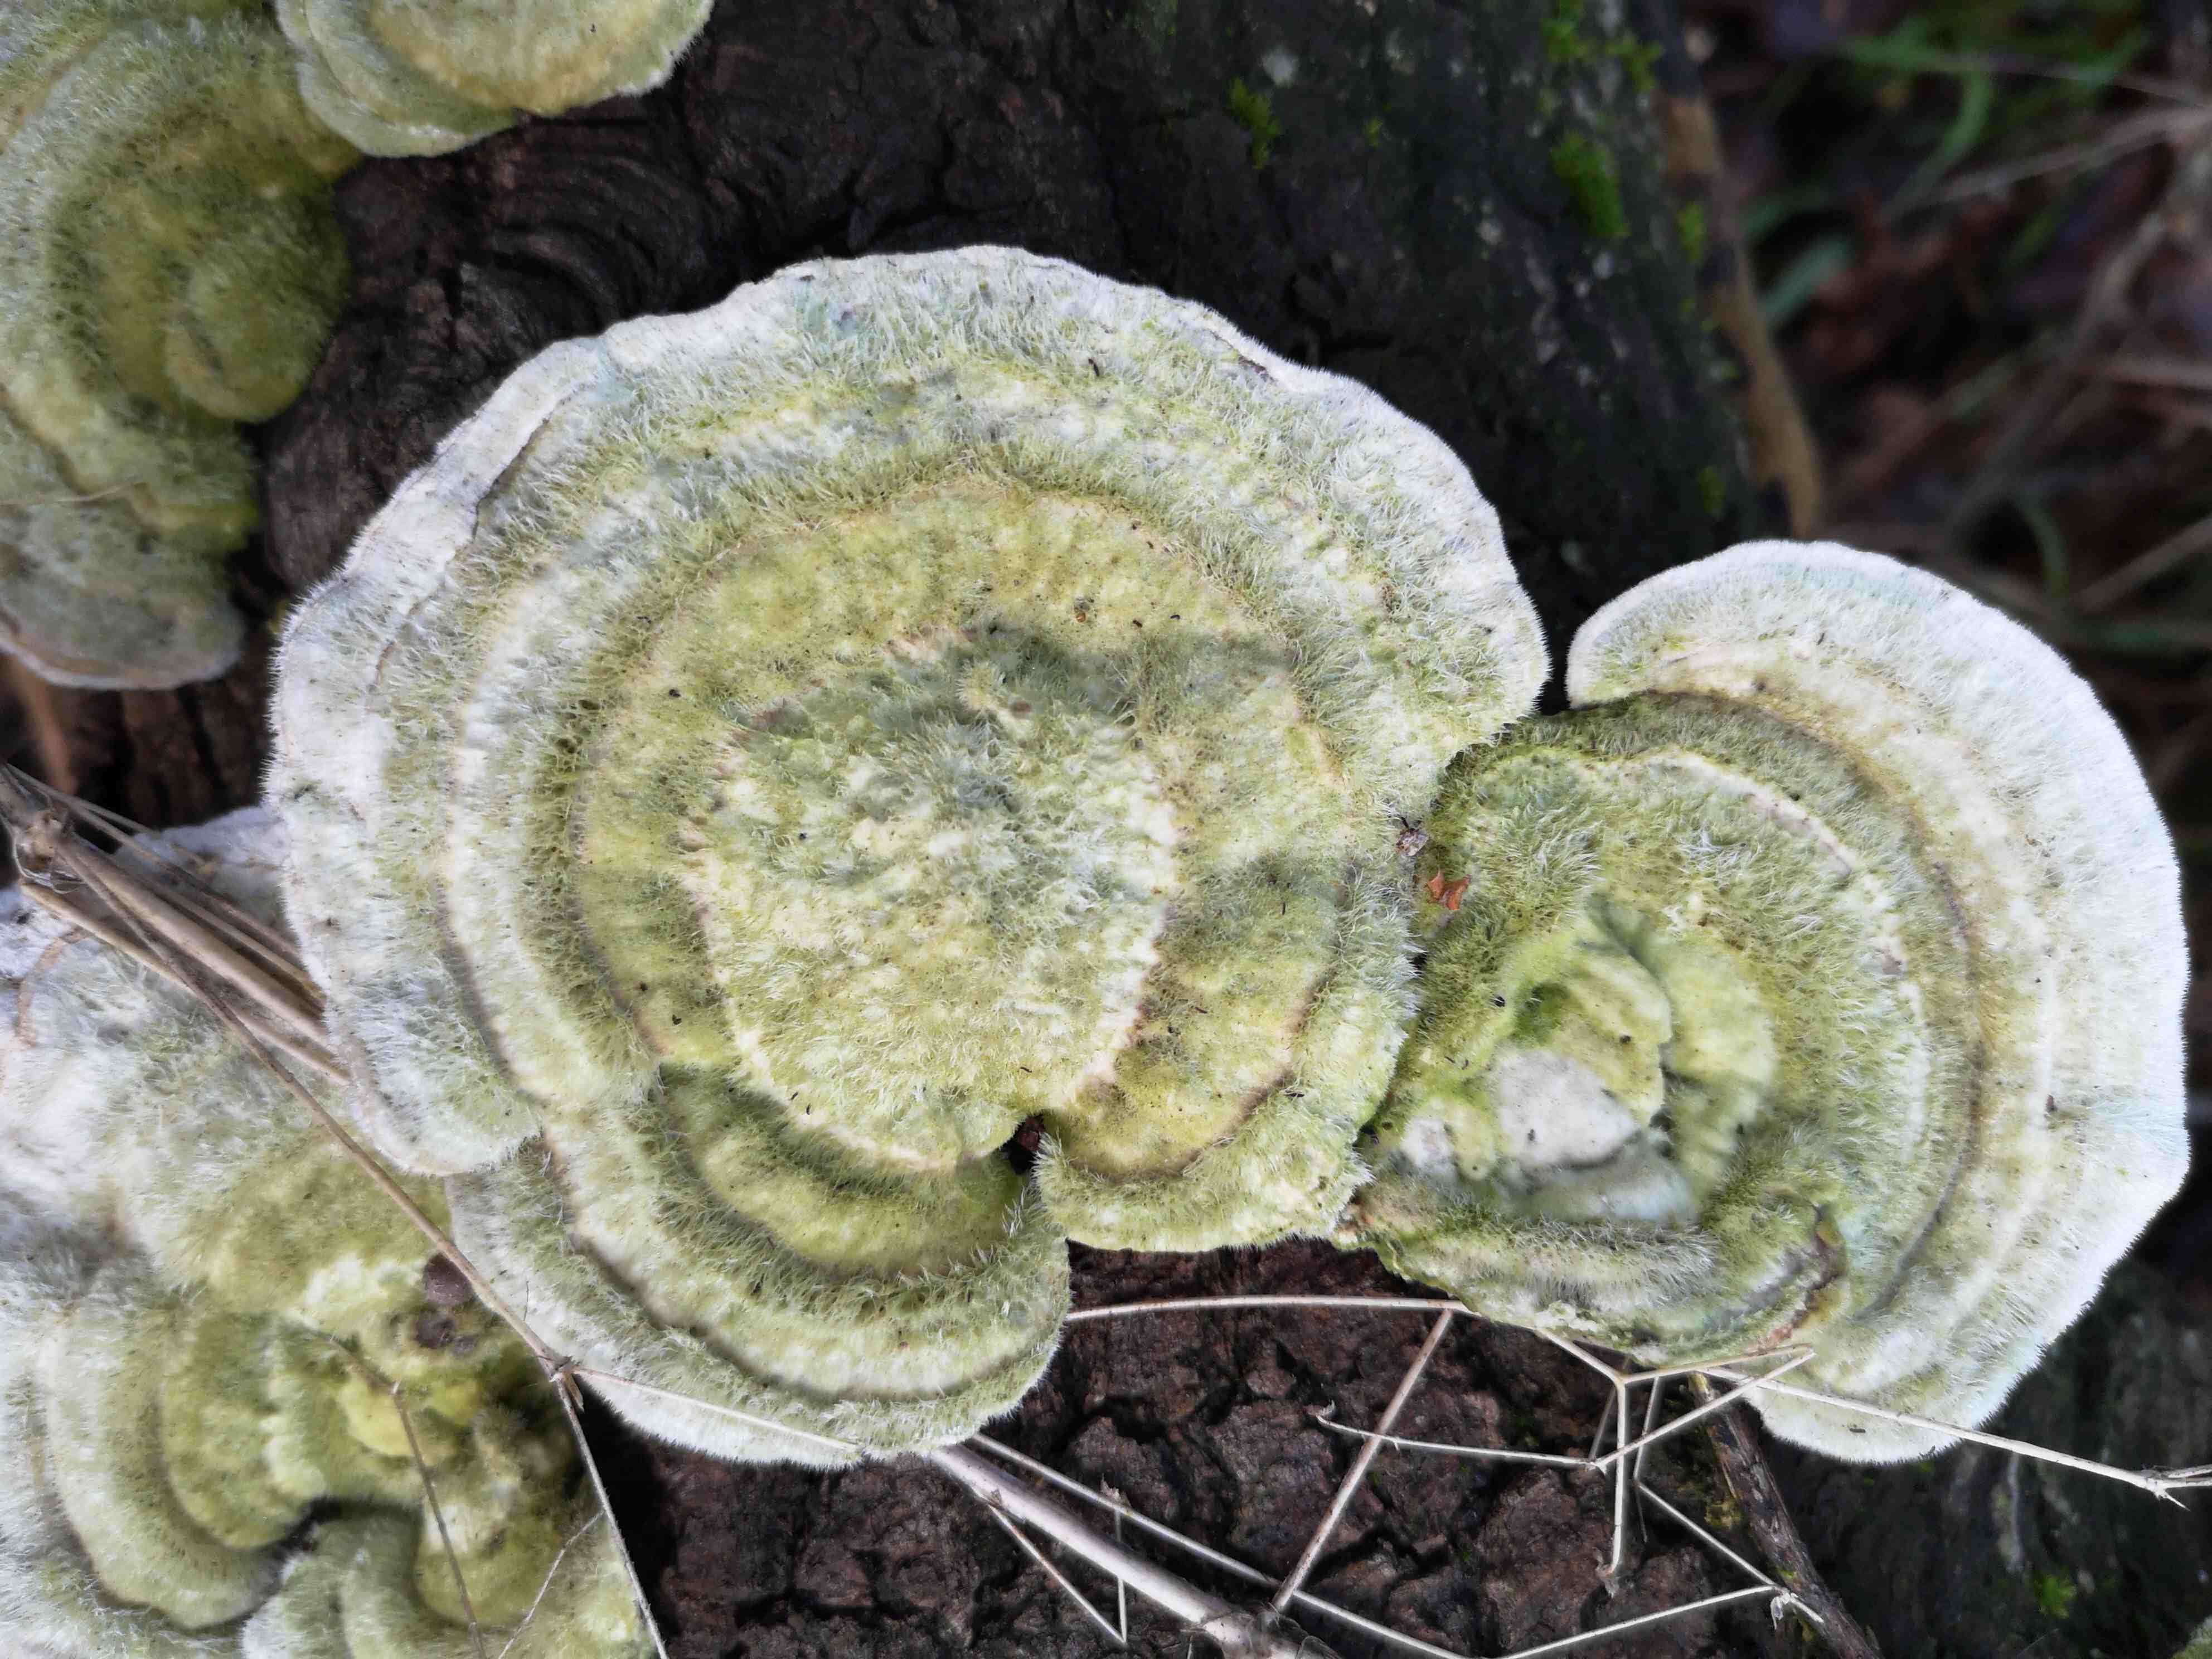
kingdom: Fungi
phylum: Basidiomycota
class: Agaricomycetes
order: Polyporales
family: Polyporaceae
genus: Trametes
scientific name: Trametes hirsuta
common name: håret læderporesvamp
